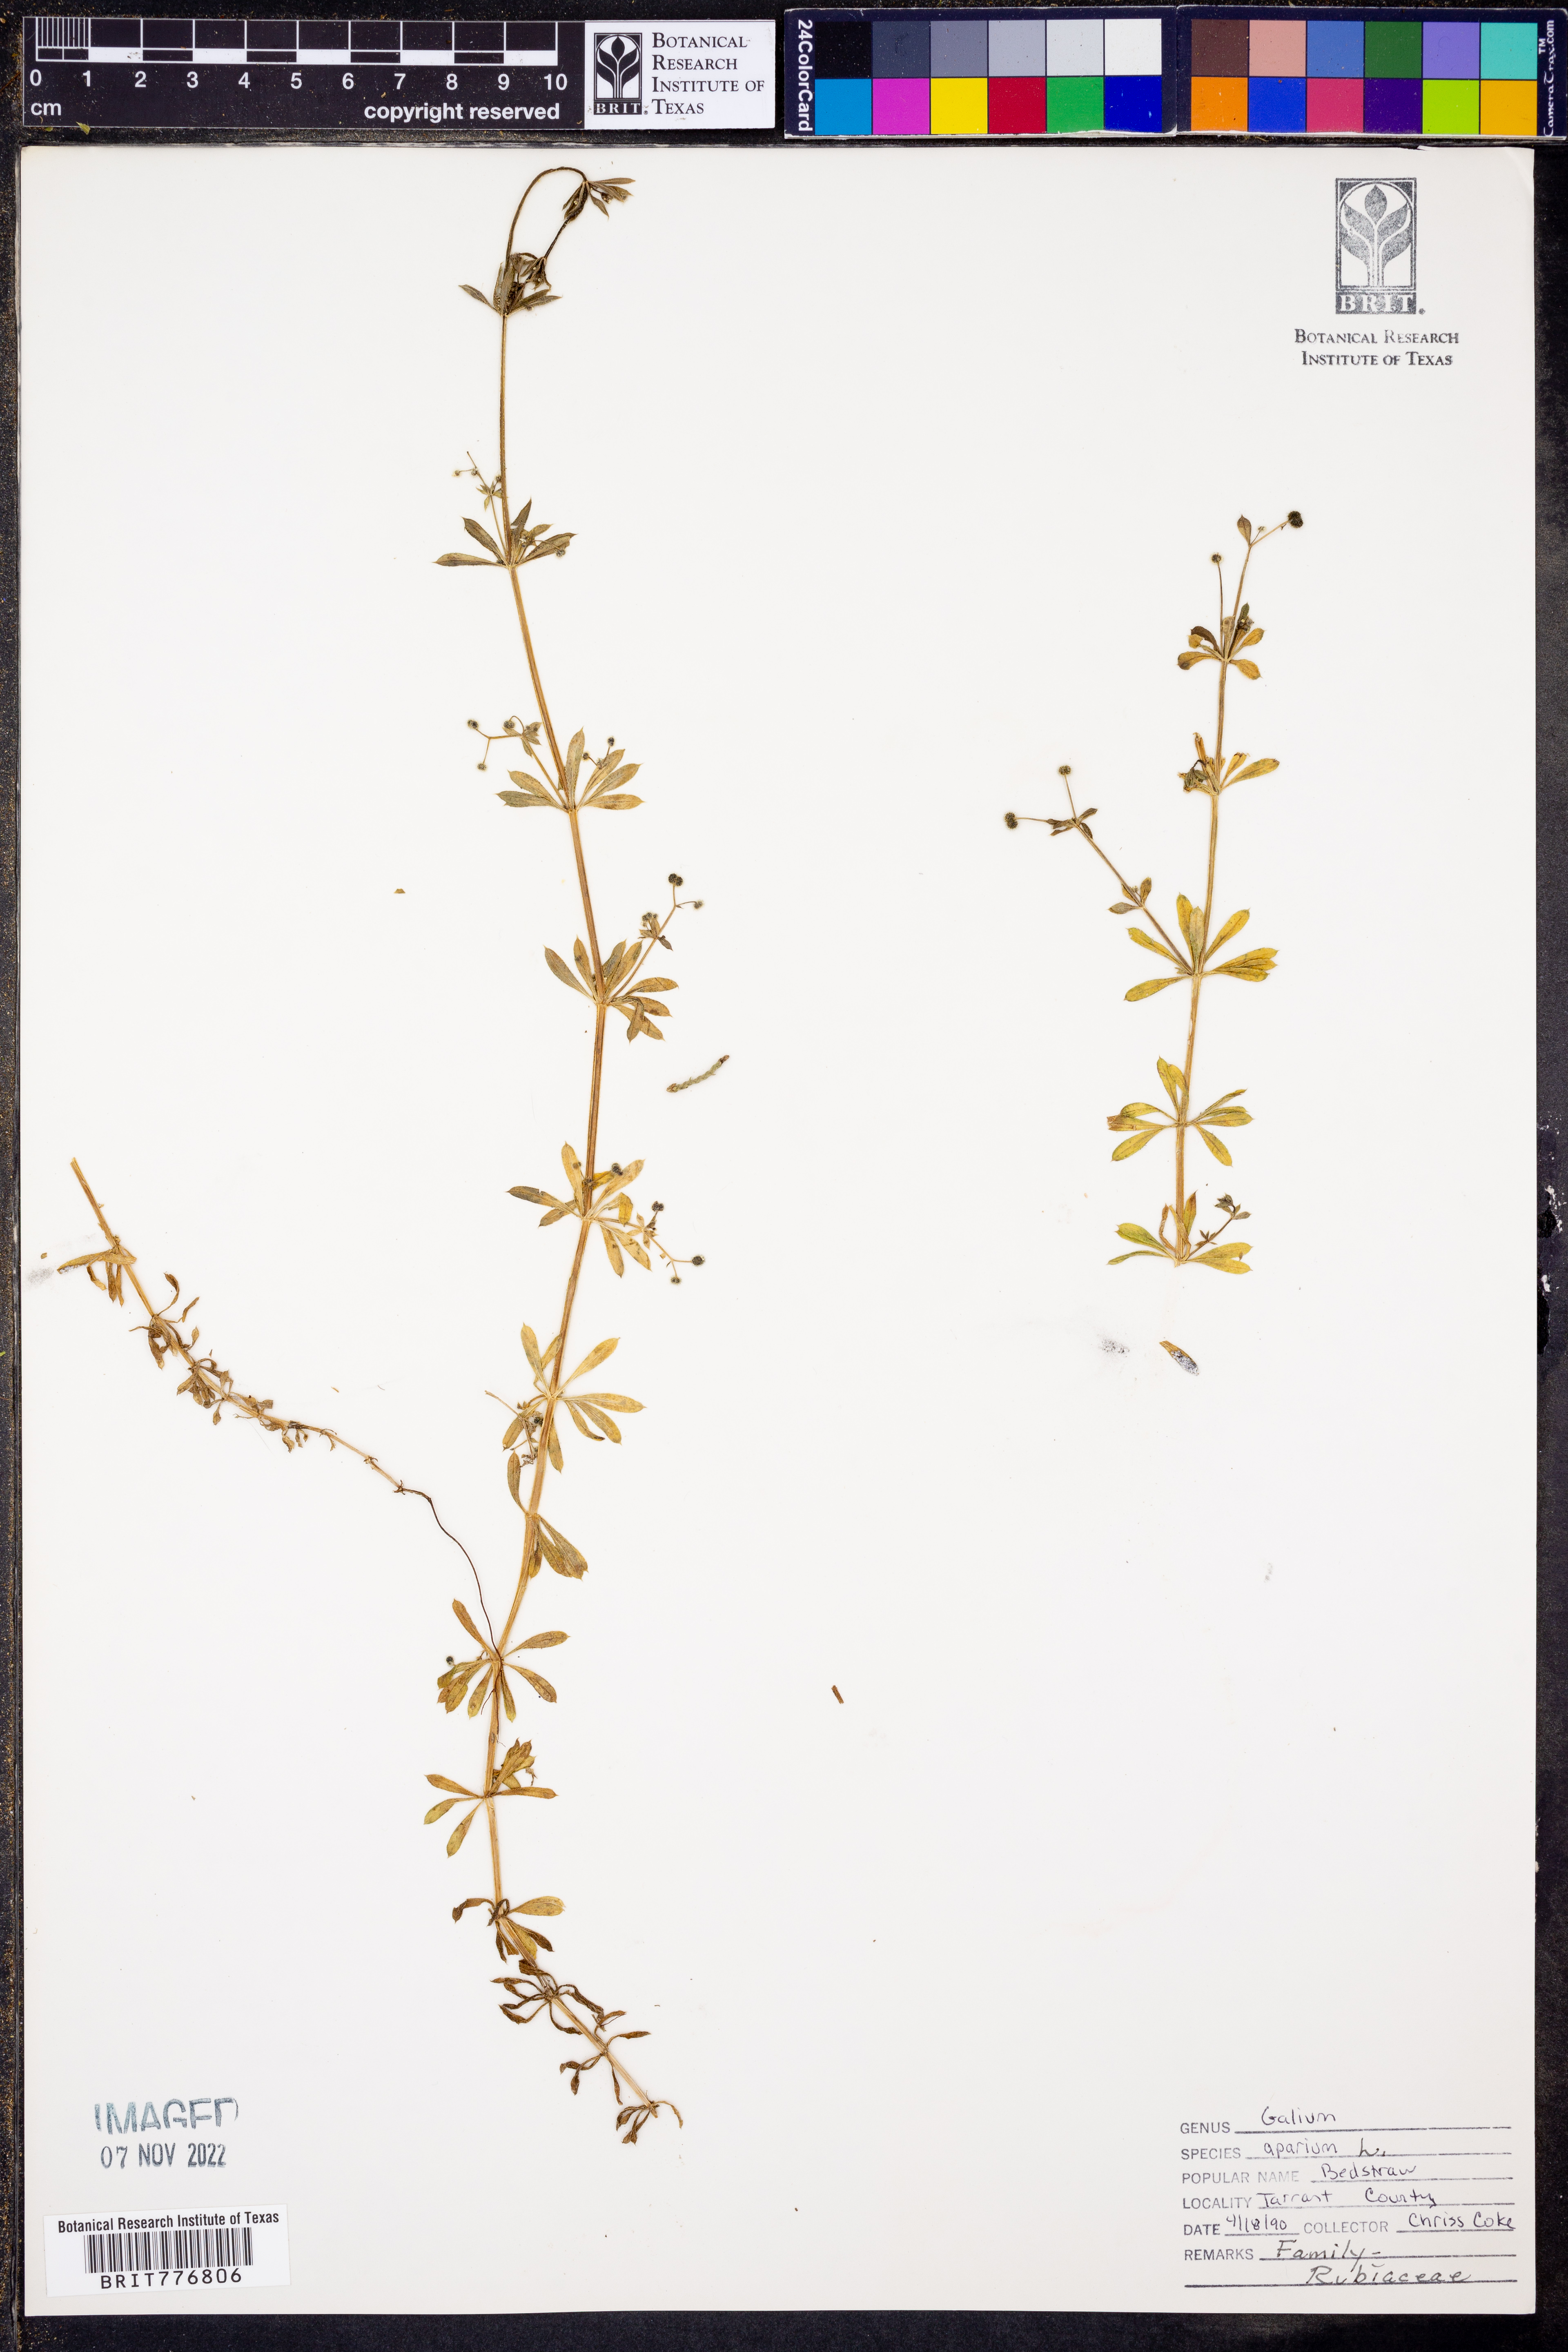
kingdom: Plantae
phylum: Tracheophyta
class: Magnoliopsida
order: Gentianales
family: Rubiaceae
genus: Galium
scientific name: Galium aparine
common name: Cleavers
